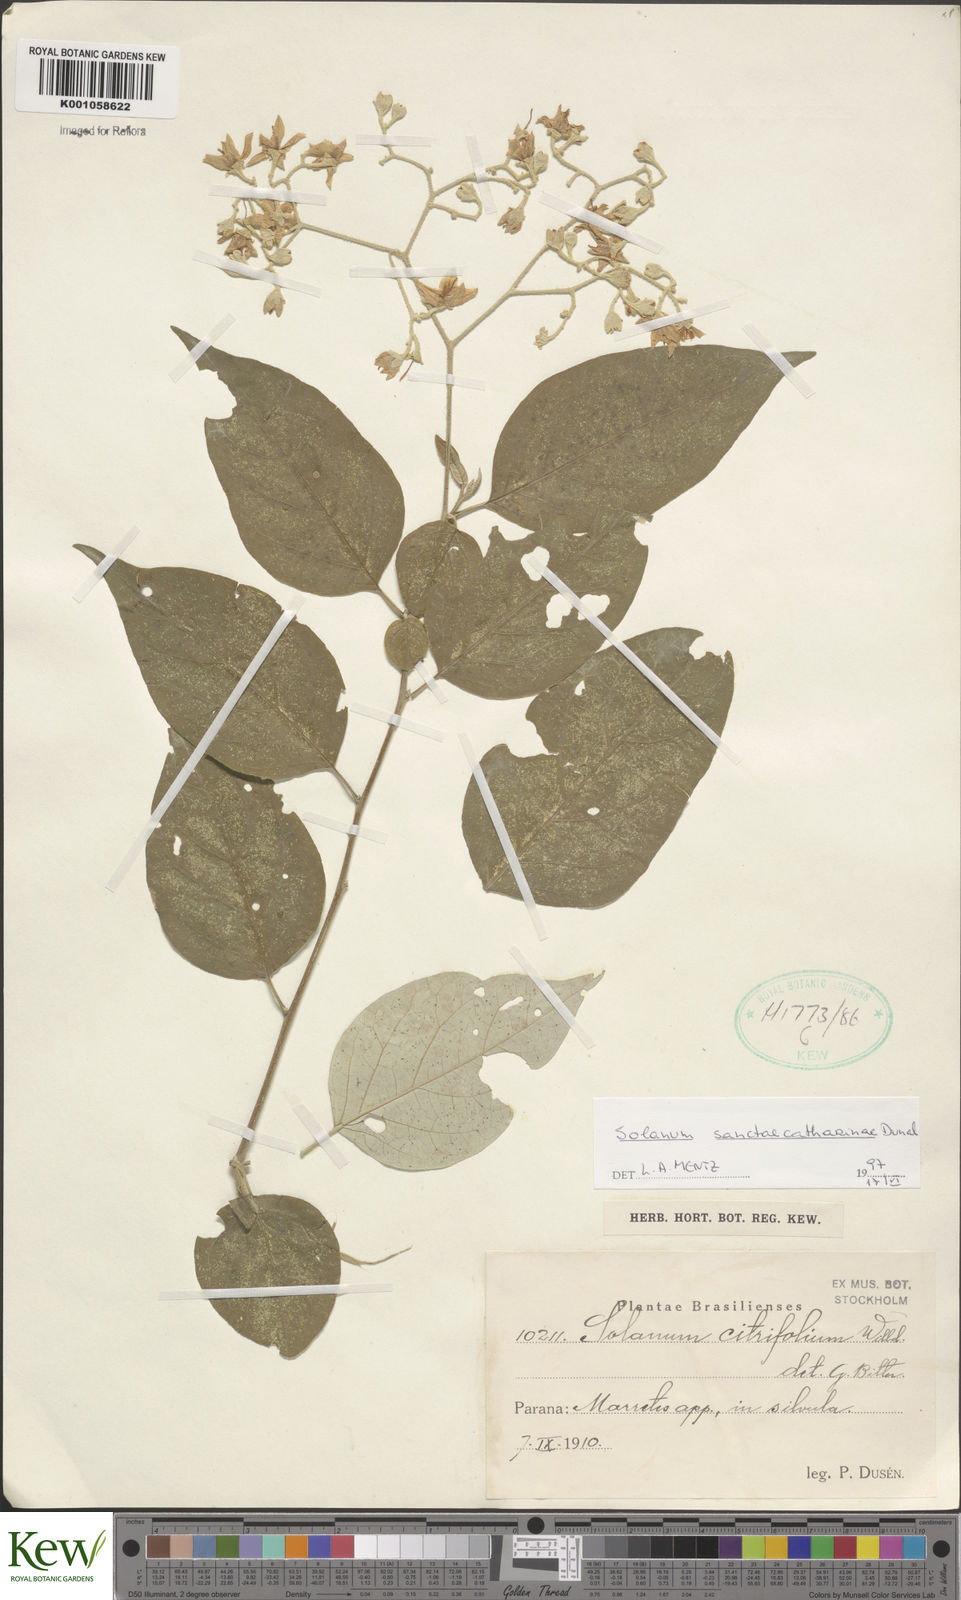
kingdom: Plantae
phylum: Tracheophyta
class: Magnoliopsida
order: Solanales
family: Solanaceae
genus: Solanum
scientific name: Solanum sanctae-catharinae
